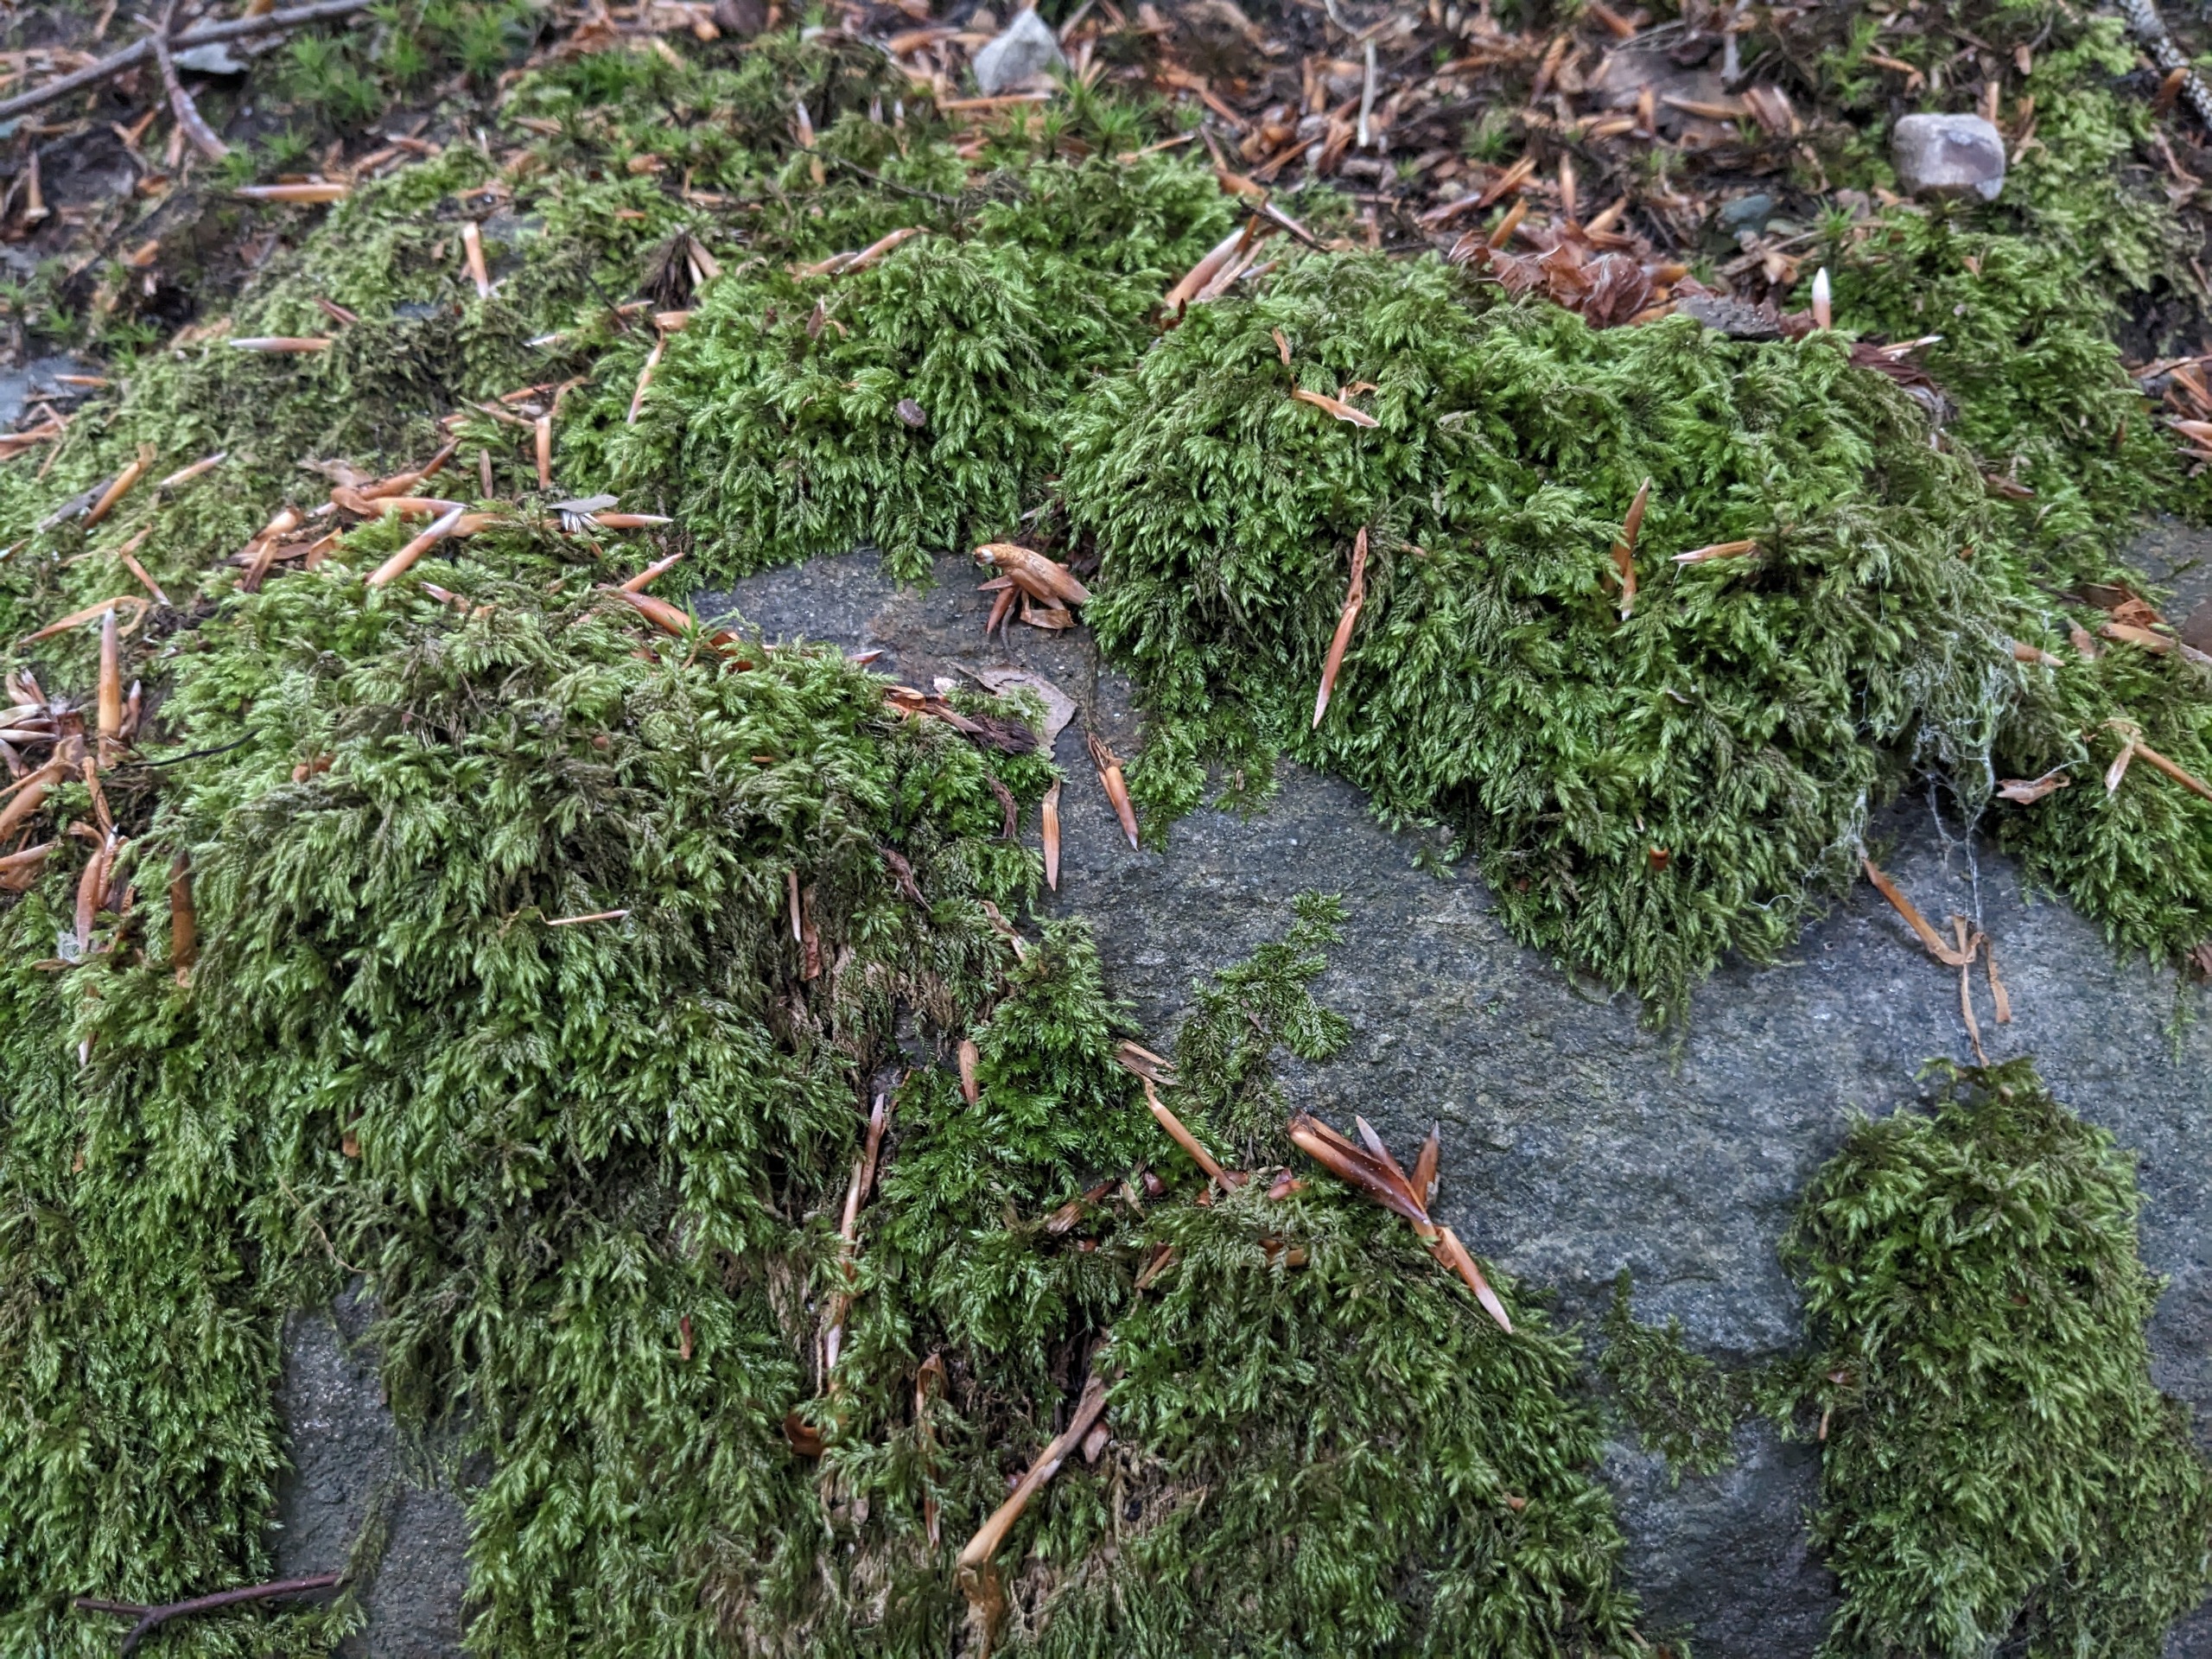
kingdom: Plantae
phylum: Bryophyta
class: Bryopsida
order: Hypnales
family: Lembophyllaceae
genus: Pseudisothecium
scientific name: Pseudisothecium myosuroides
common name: Slank stammemos
